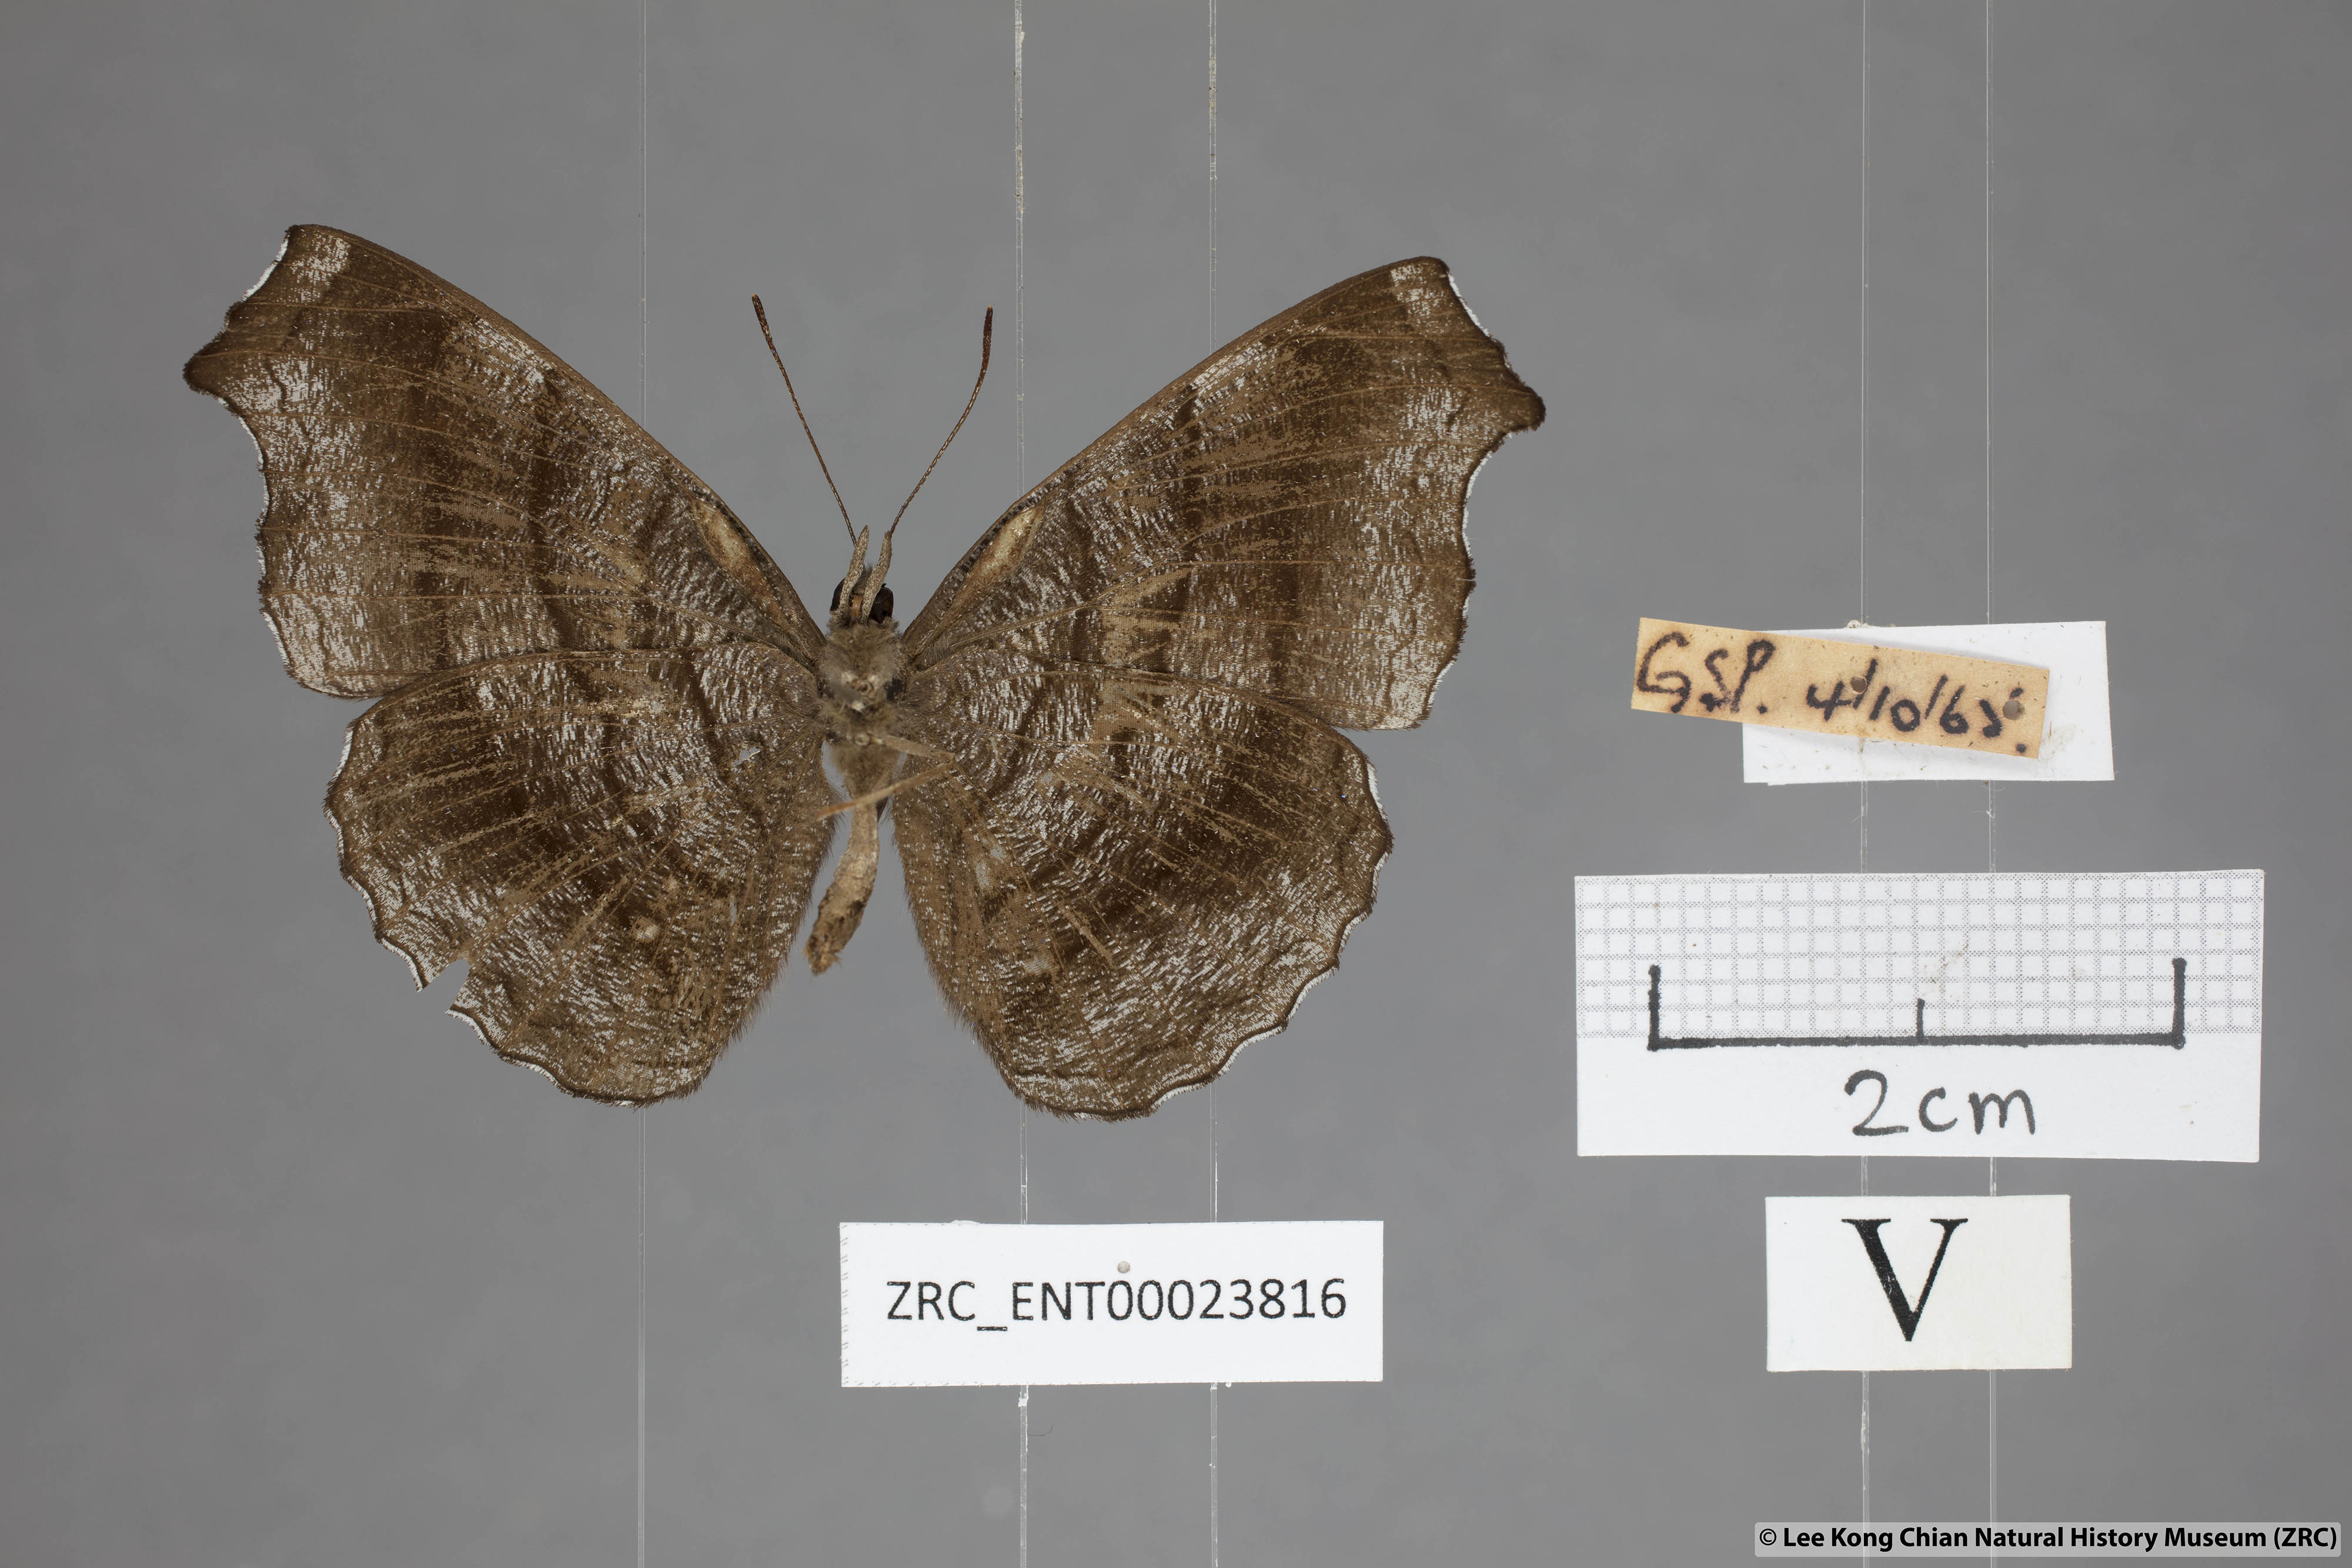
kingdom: Animalia
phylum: Arthropoda
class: Insecta
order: Lepidoptera
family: Nymphalidae
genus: Laringa
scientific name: Laringa castelnaui
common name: Blue dandy
